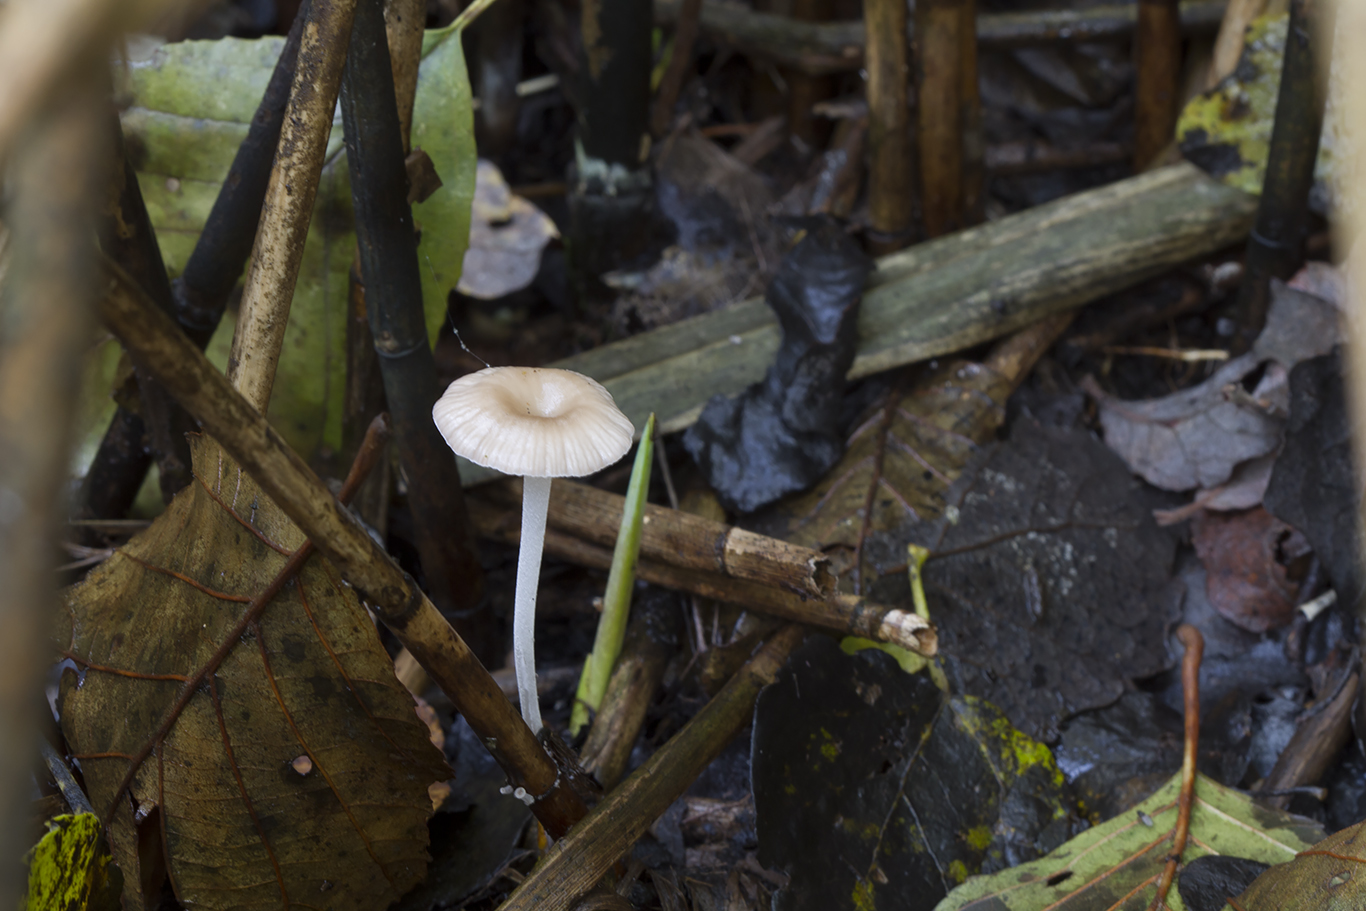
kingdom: Fungi
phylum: Basidiomycota
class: Agaricomycetes
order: Agaricales
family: Mycenaceae
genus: Mycena
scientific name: Mycena belliae
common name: tagrørs-huesvamp
